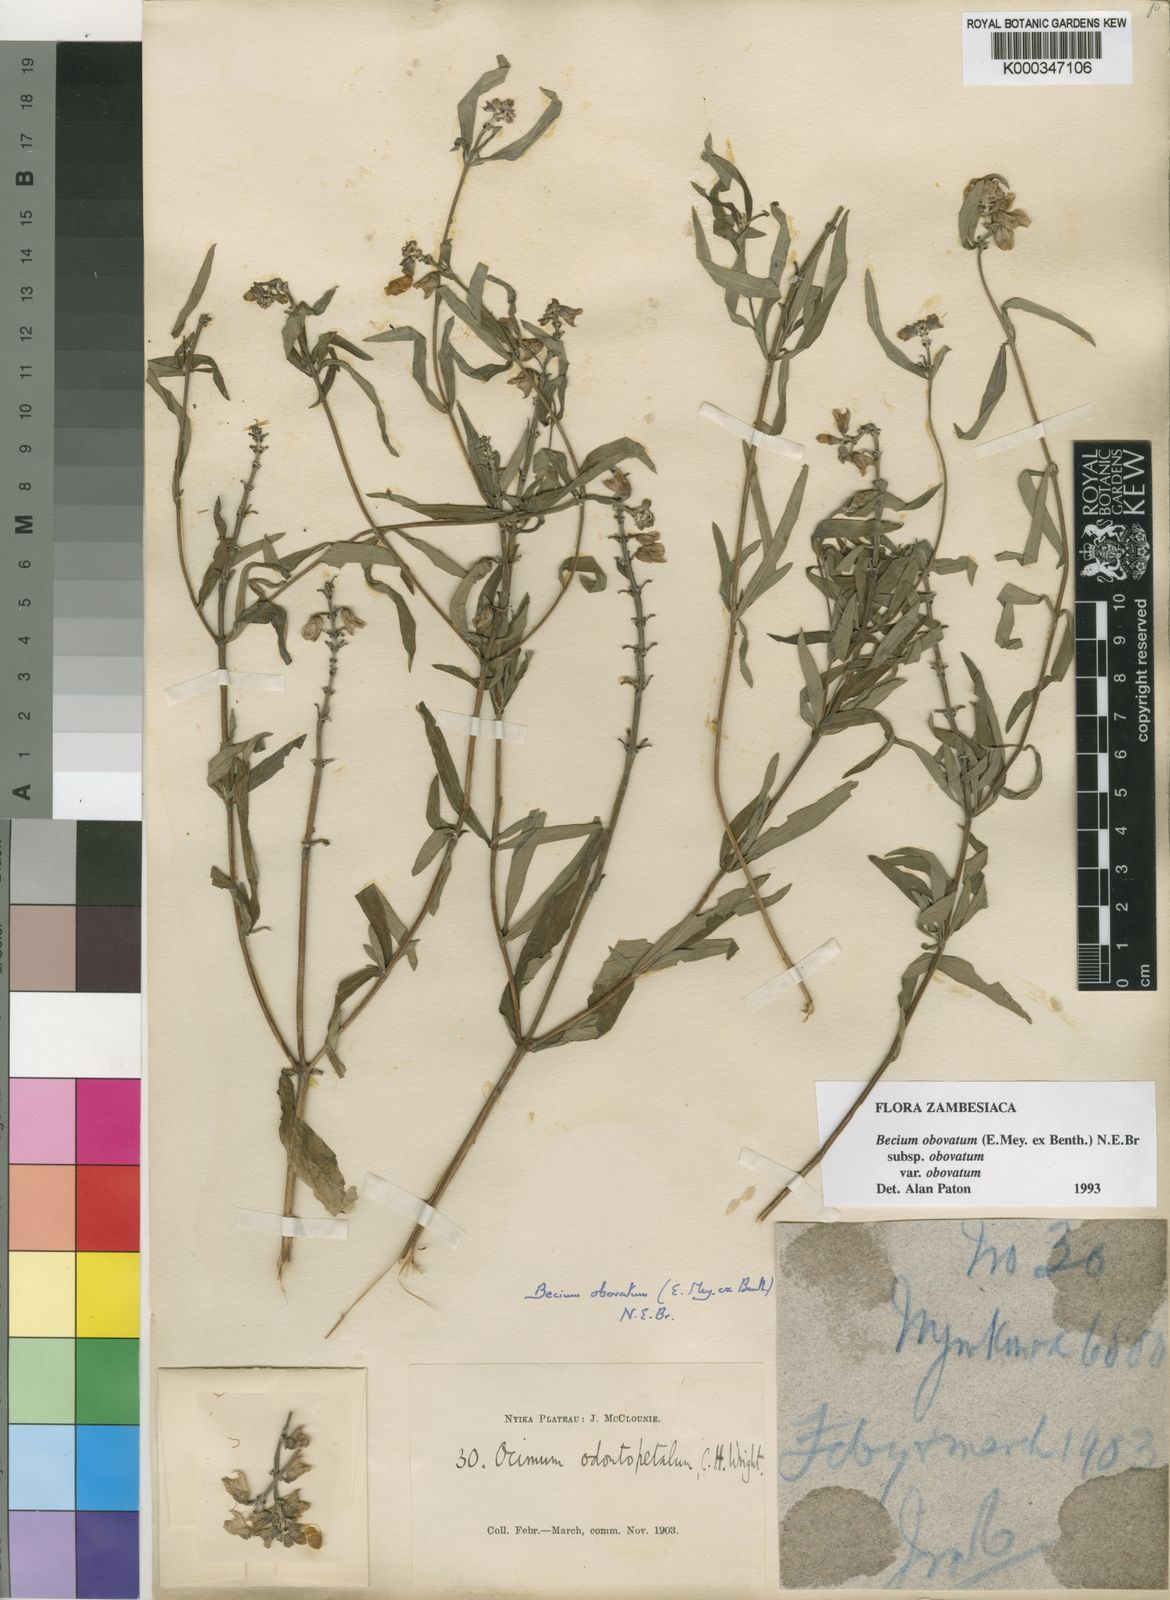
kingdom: Plantae
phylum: Tracheophyta
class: Magnoliopsida
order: Lamiales
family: Lamiaceae
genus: Ocimum
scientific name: Ocimum obovatum
